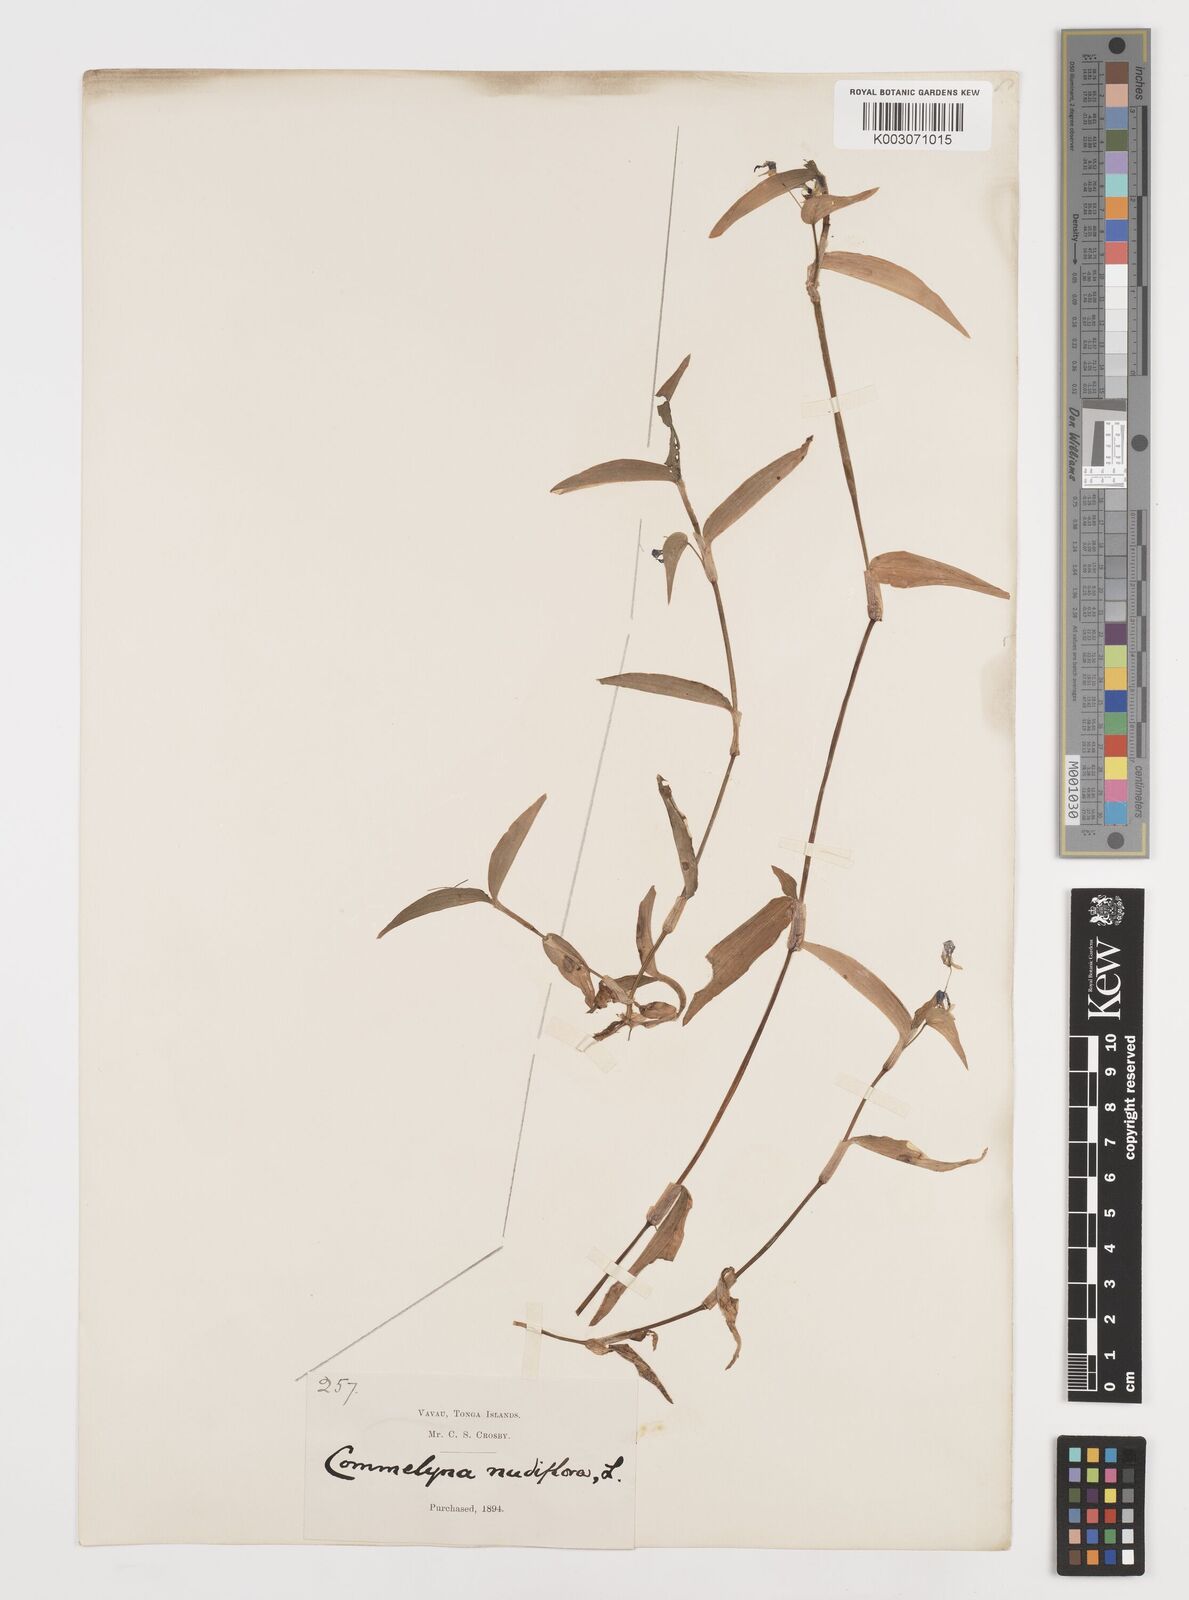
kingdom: Plantae
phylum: Tracheophyta
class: Liliopsida
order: Commelinales
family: Commelinaceae
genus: Commelina
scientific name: Commelina diffusa
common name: Climbing dayflower
